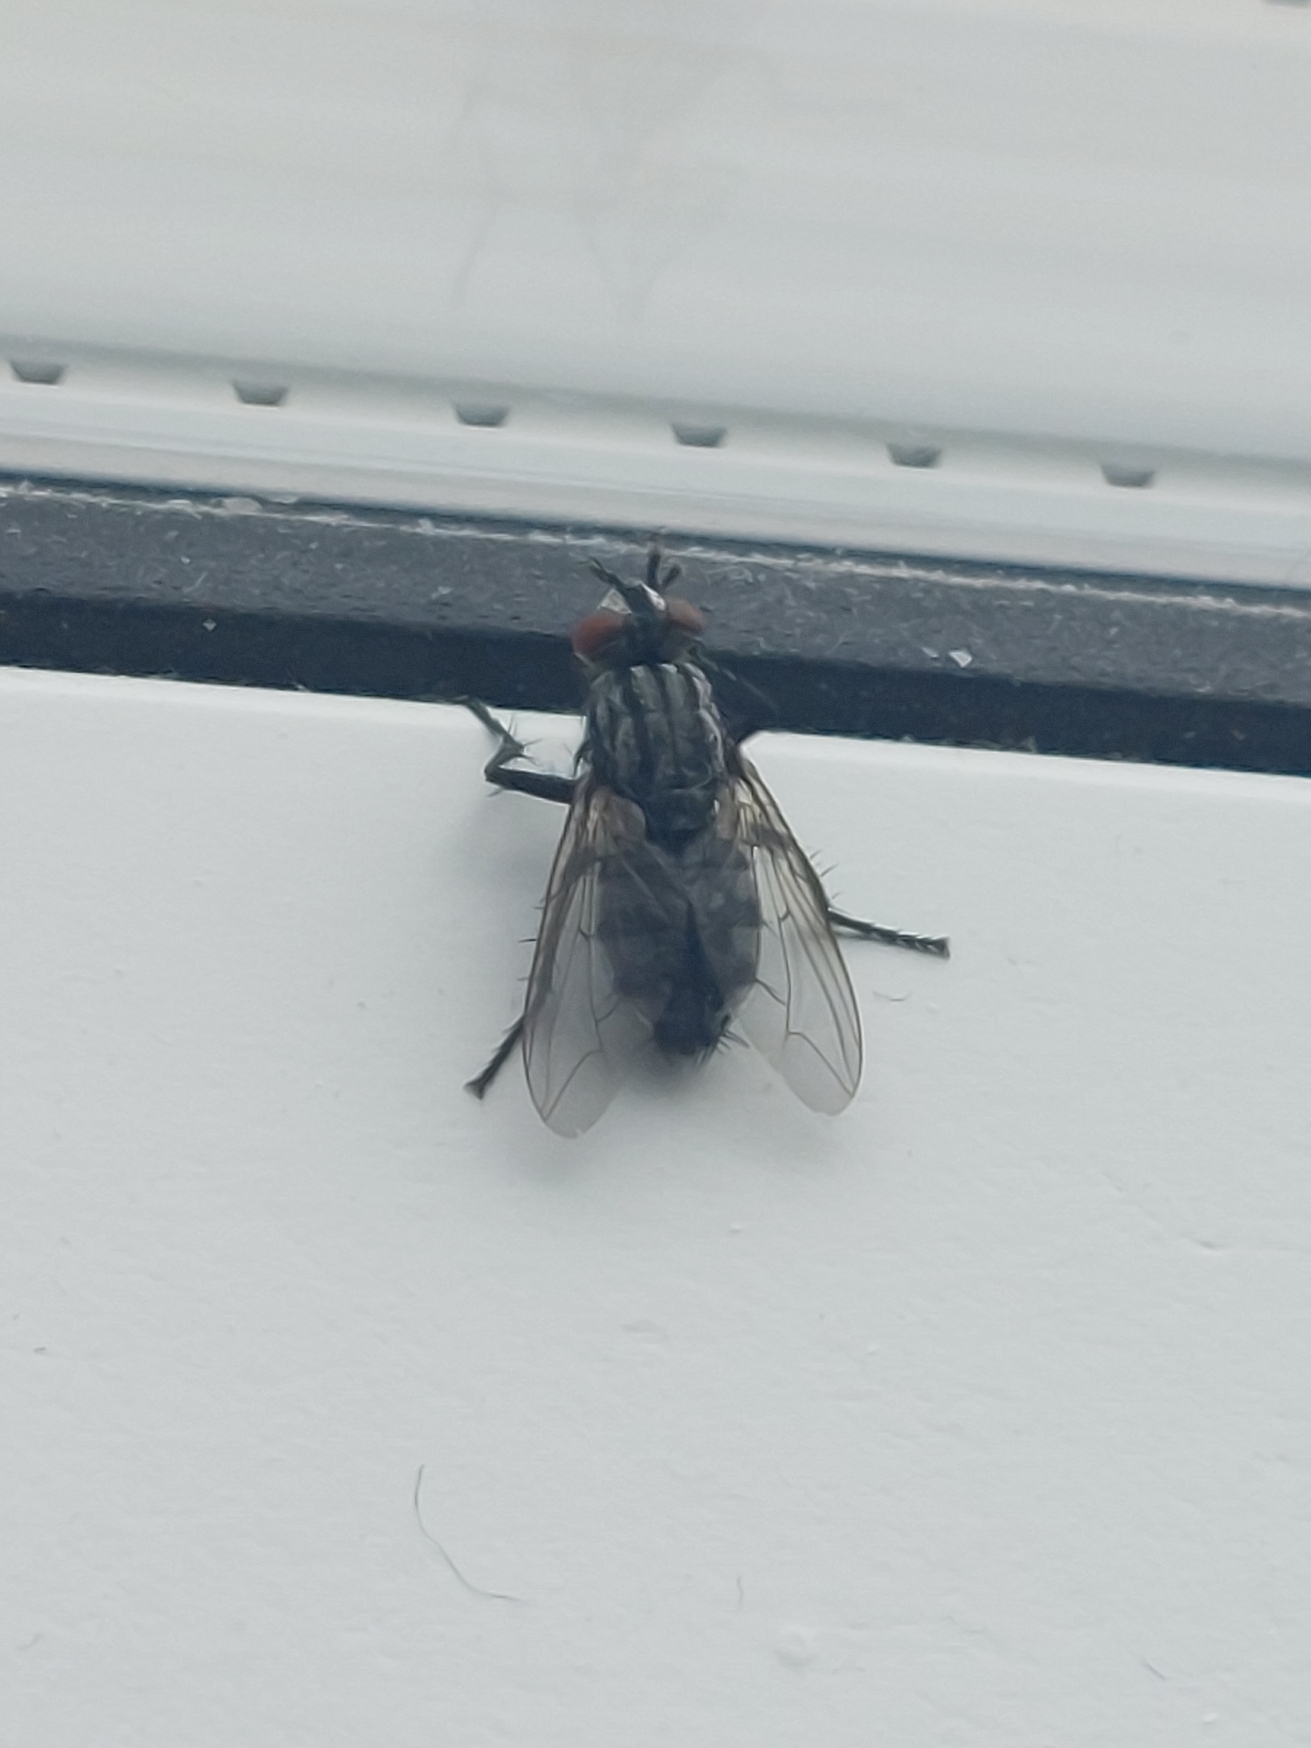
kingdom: Animalia
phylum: Arthropoda
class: Insecta
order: Diptera
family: Sarcophagidae
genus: Sarcophaga
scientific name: Sarcophaga
